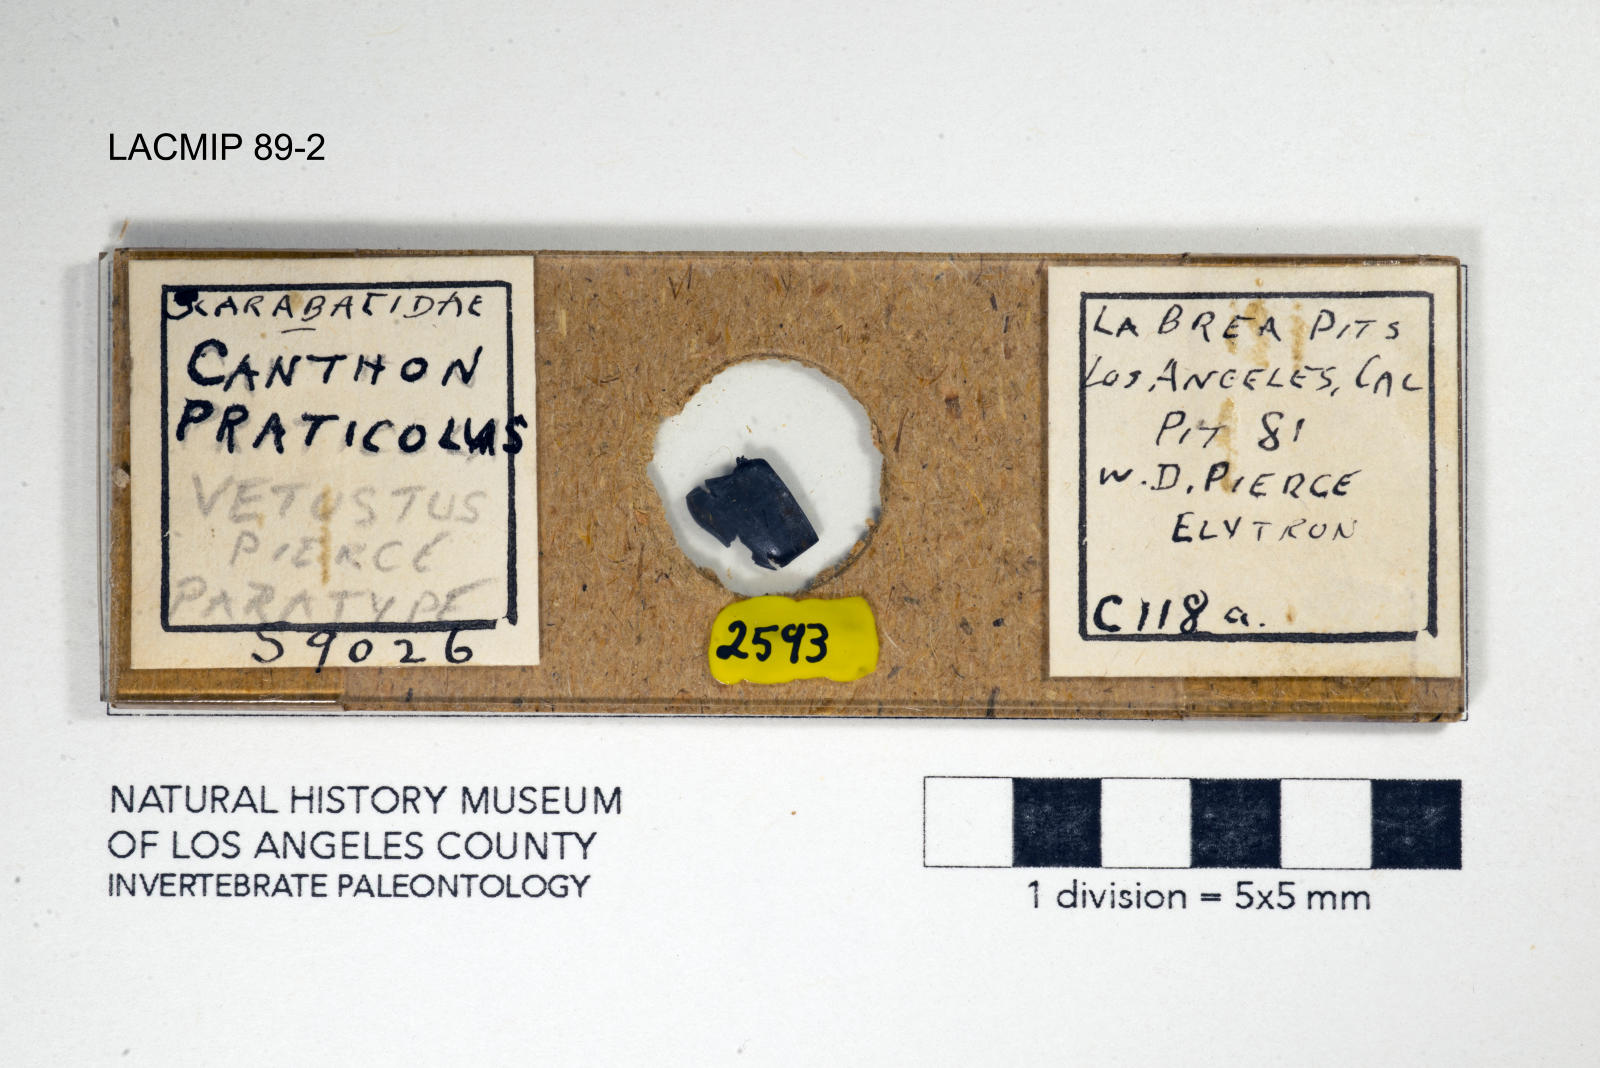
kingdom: Animalia
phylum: Arthropoda
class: Insecta
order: Coleoptera
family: Scarabaeidae
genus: Canthon
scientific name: Canthon praticola
